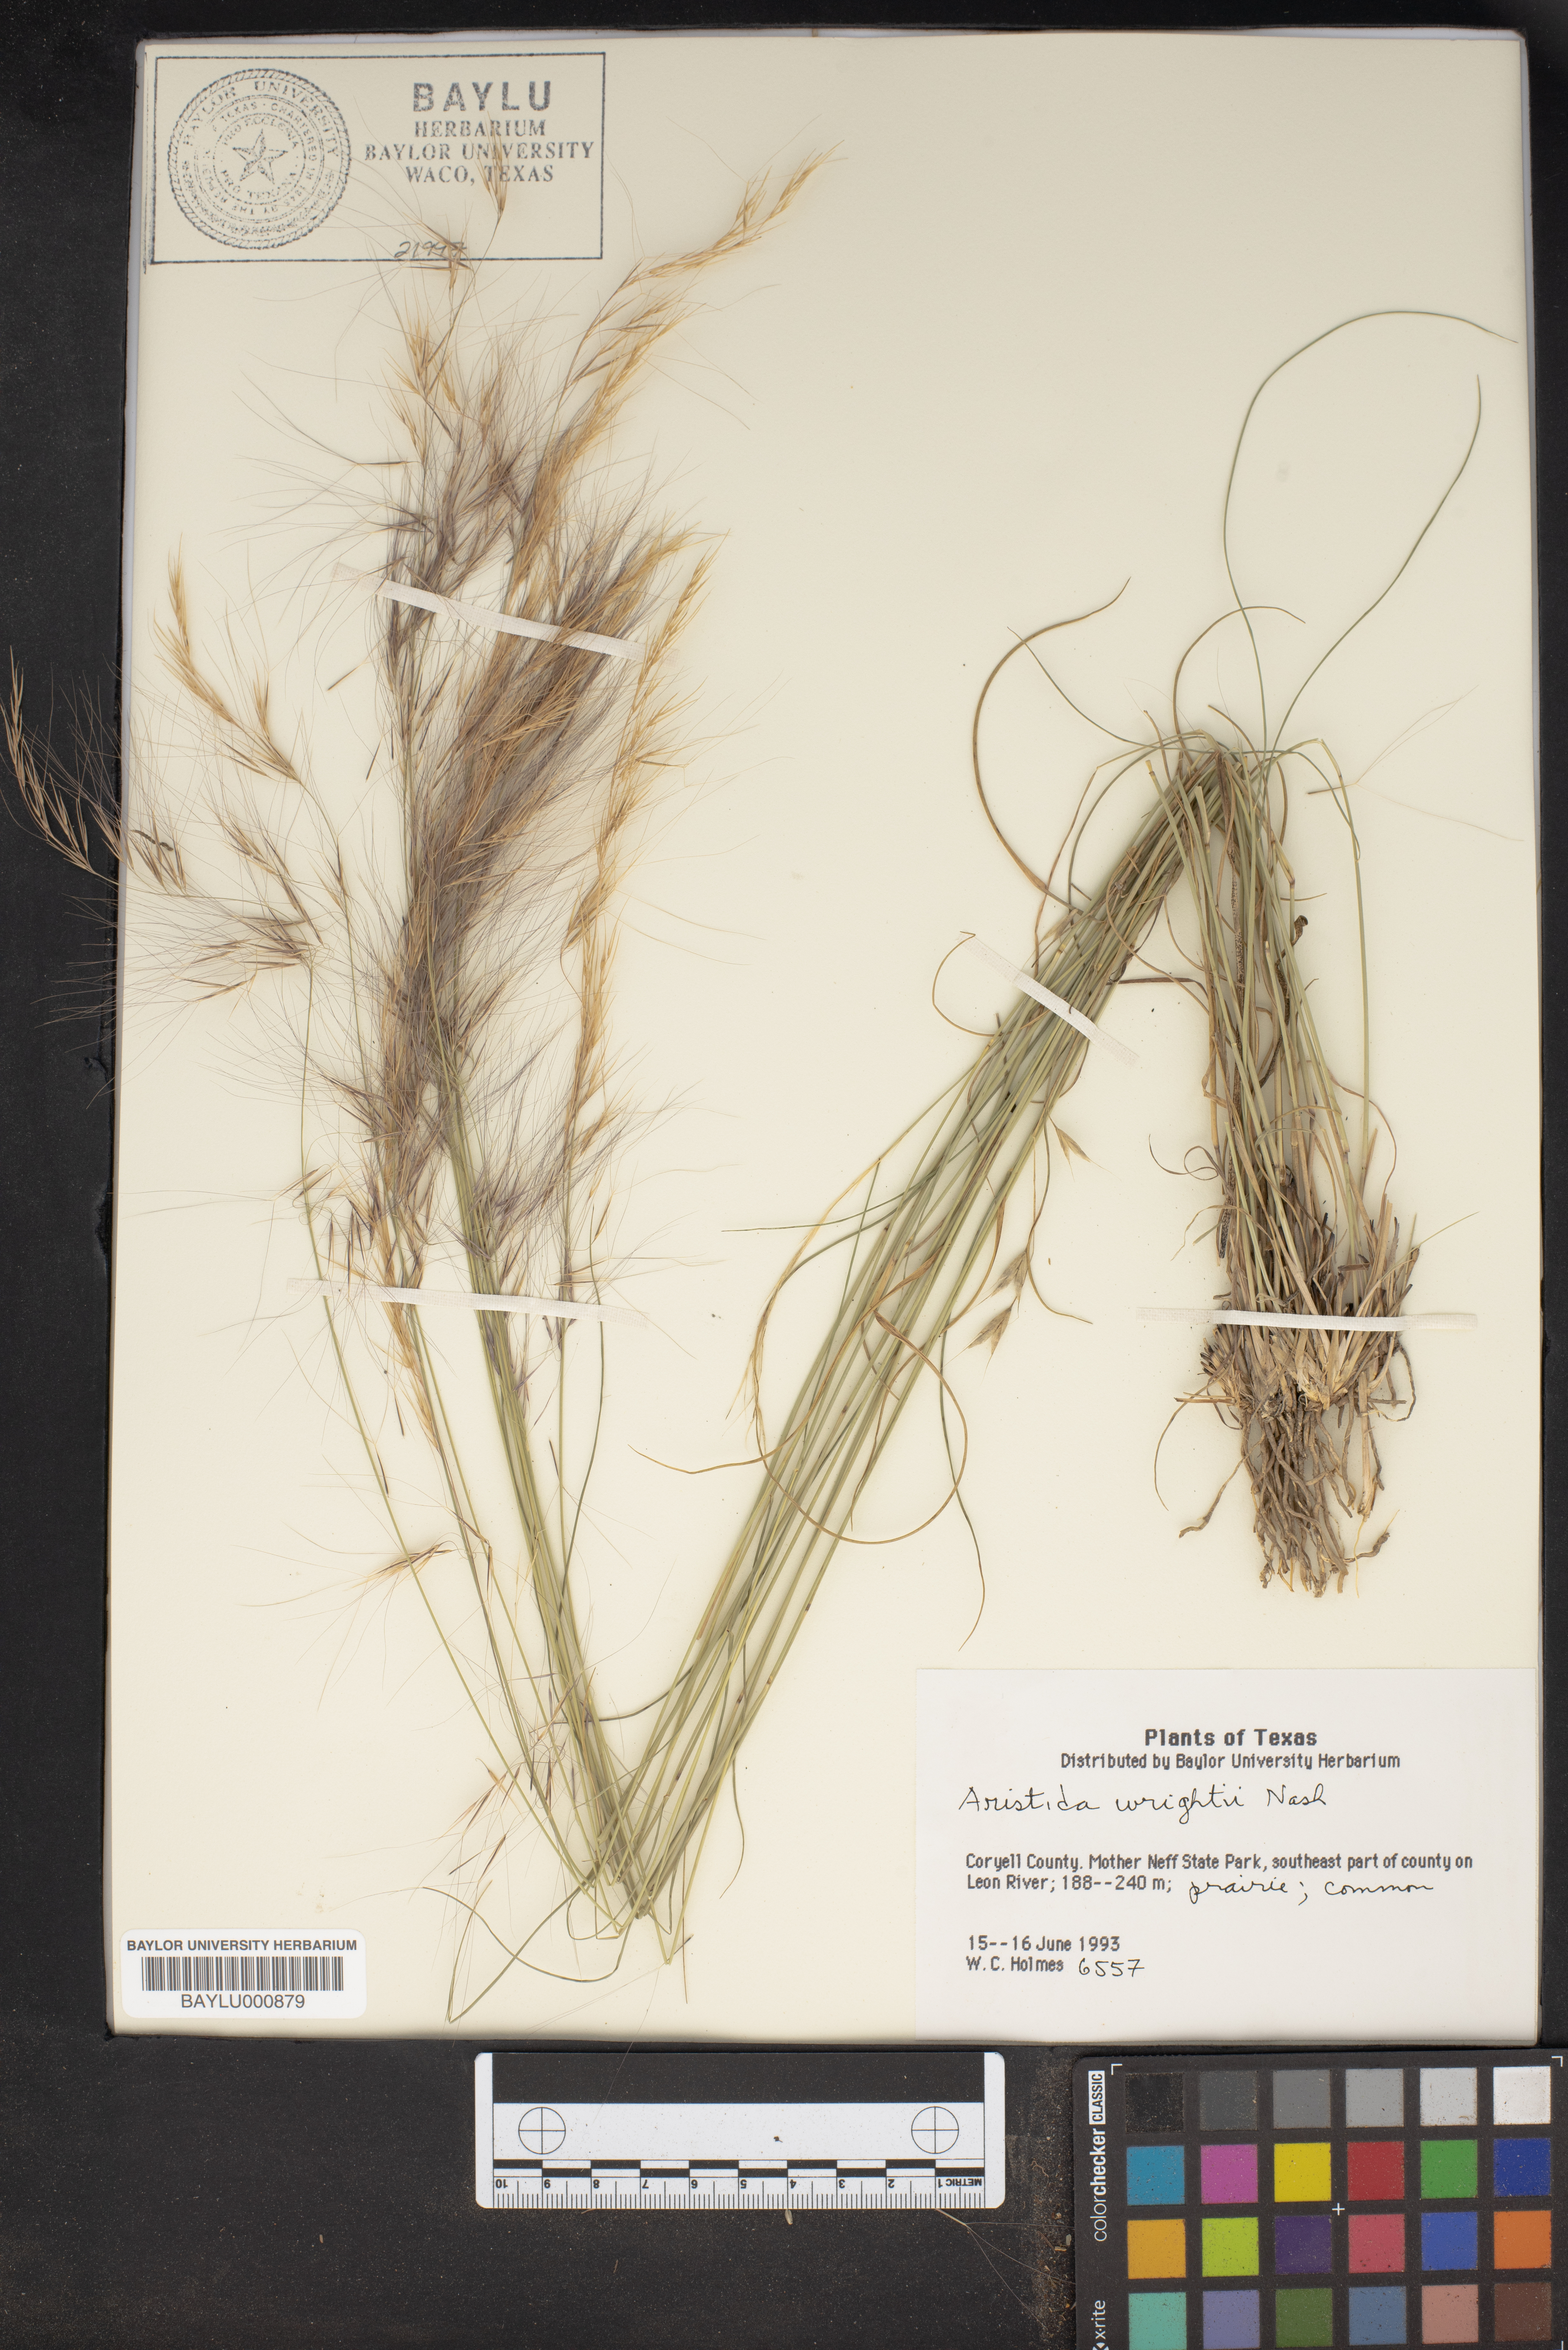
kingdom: Plantae
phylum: Tracheophyta
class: Liliopsida
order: Poales
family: Poaceae
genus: Aristida
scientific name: Aristida wrightii
